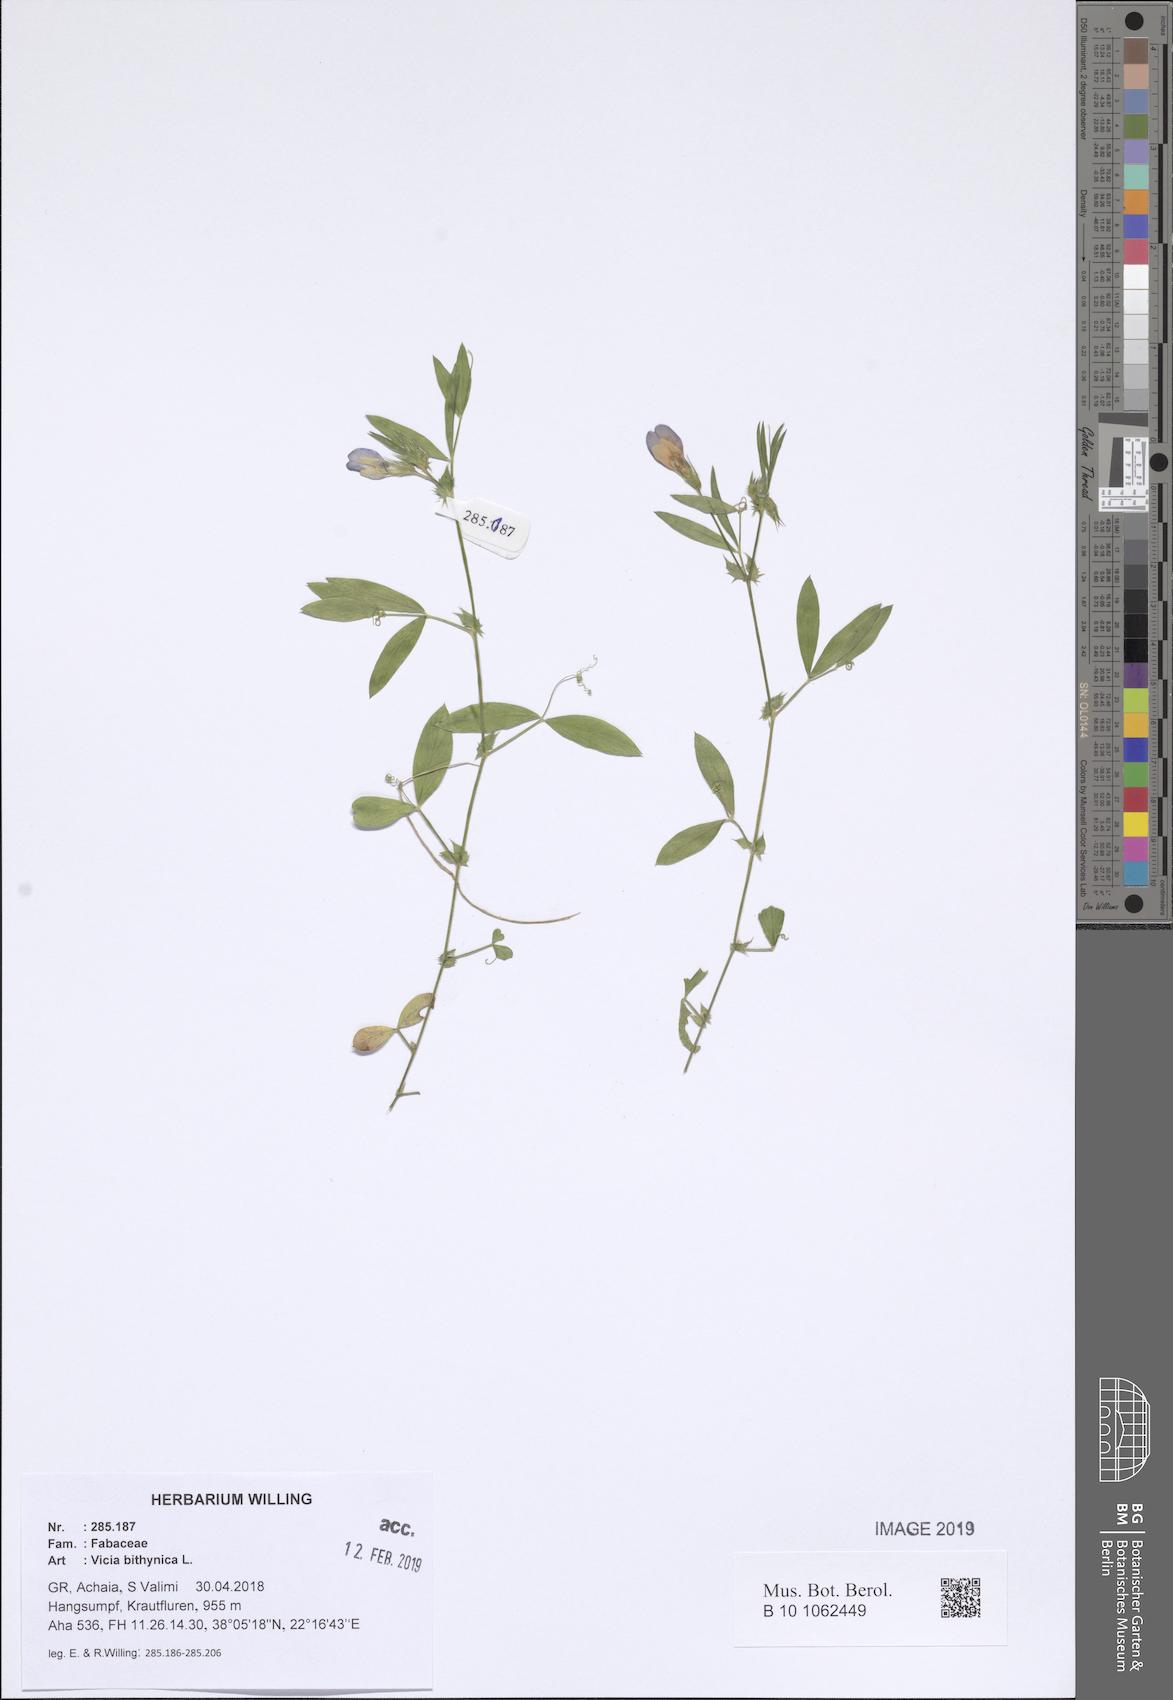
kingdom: Plantae
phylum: Tracheophyta
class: Magnoliopsida
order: Fabales
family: Fabaceae
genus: Vicia
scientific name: Vicia bithynica
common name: Bithynian vetch
